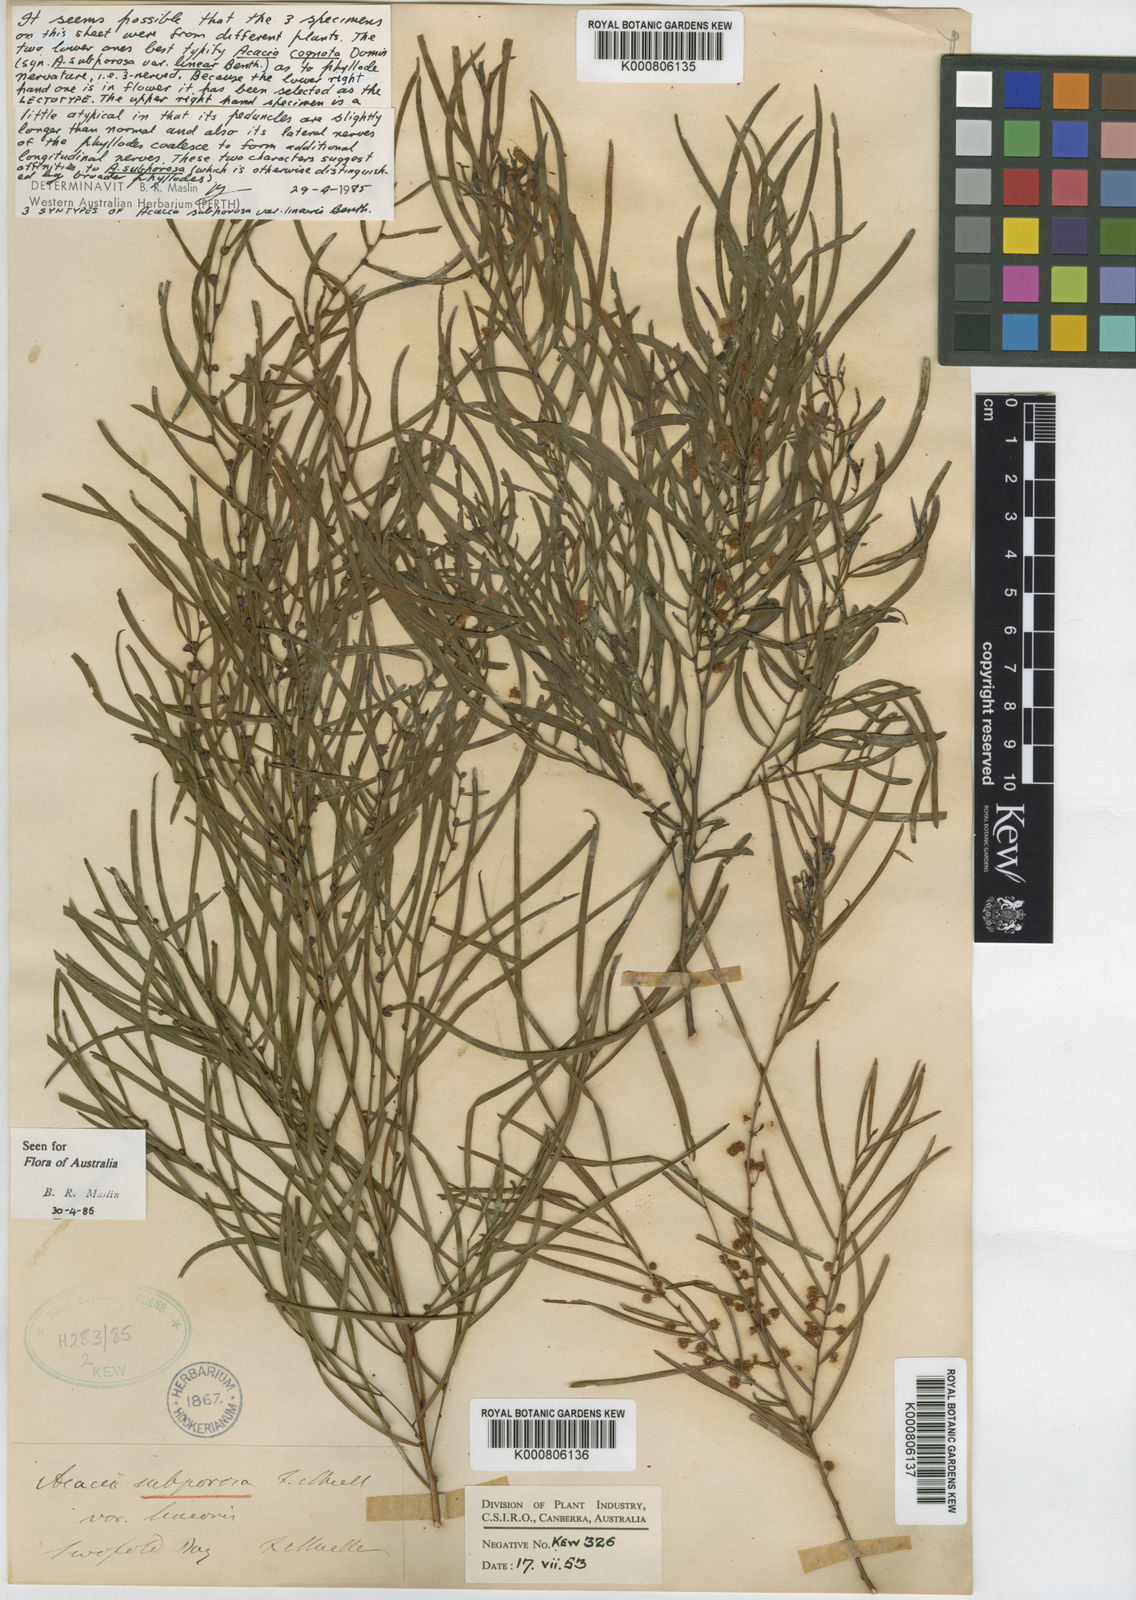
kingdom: Plantae
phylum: Tracheophyta
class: Magnoliopsida
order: Fabales
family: Fabaceae
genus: Acacia
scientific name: Acacia cognata
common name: Narrow-leaf bower wattle
